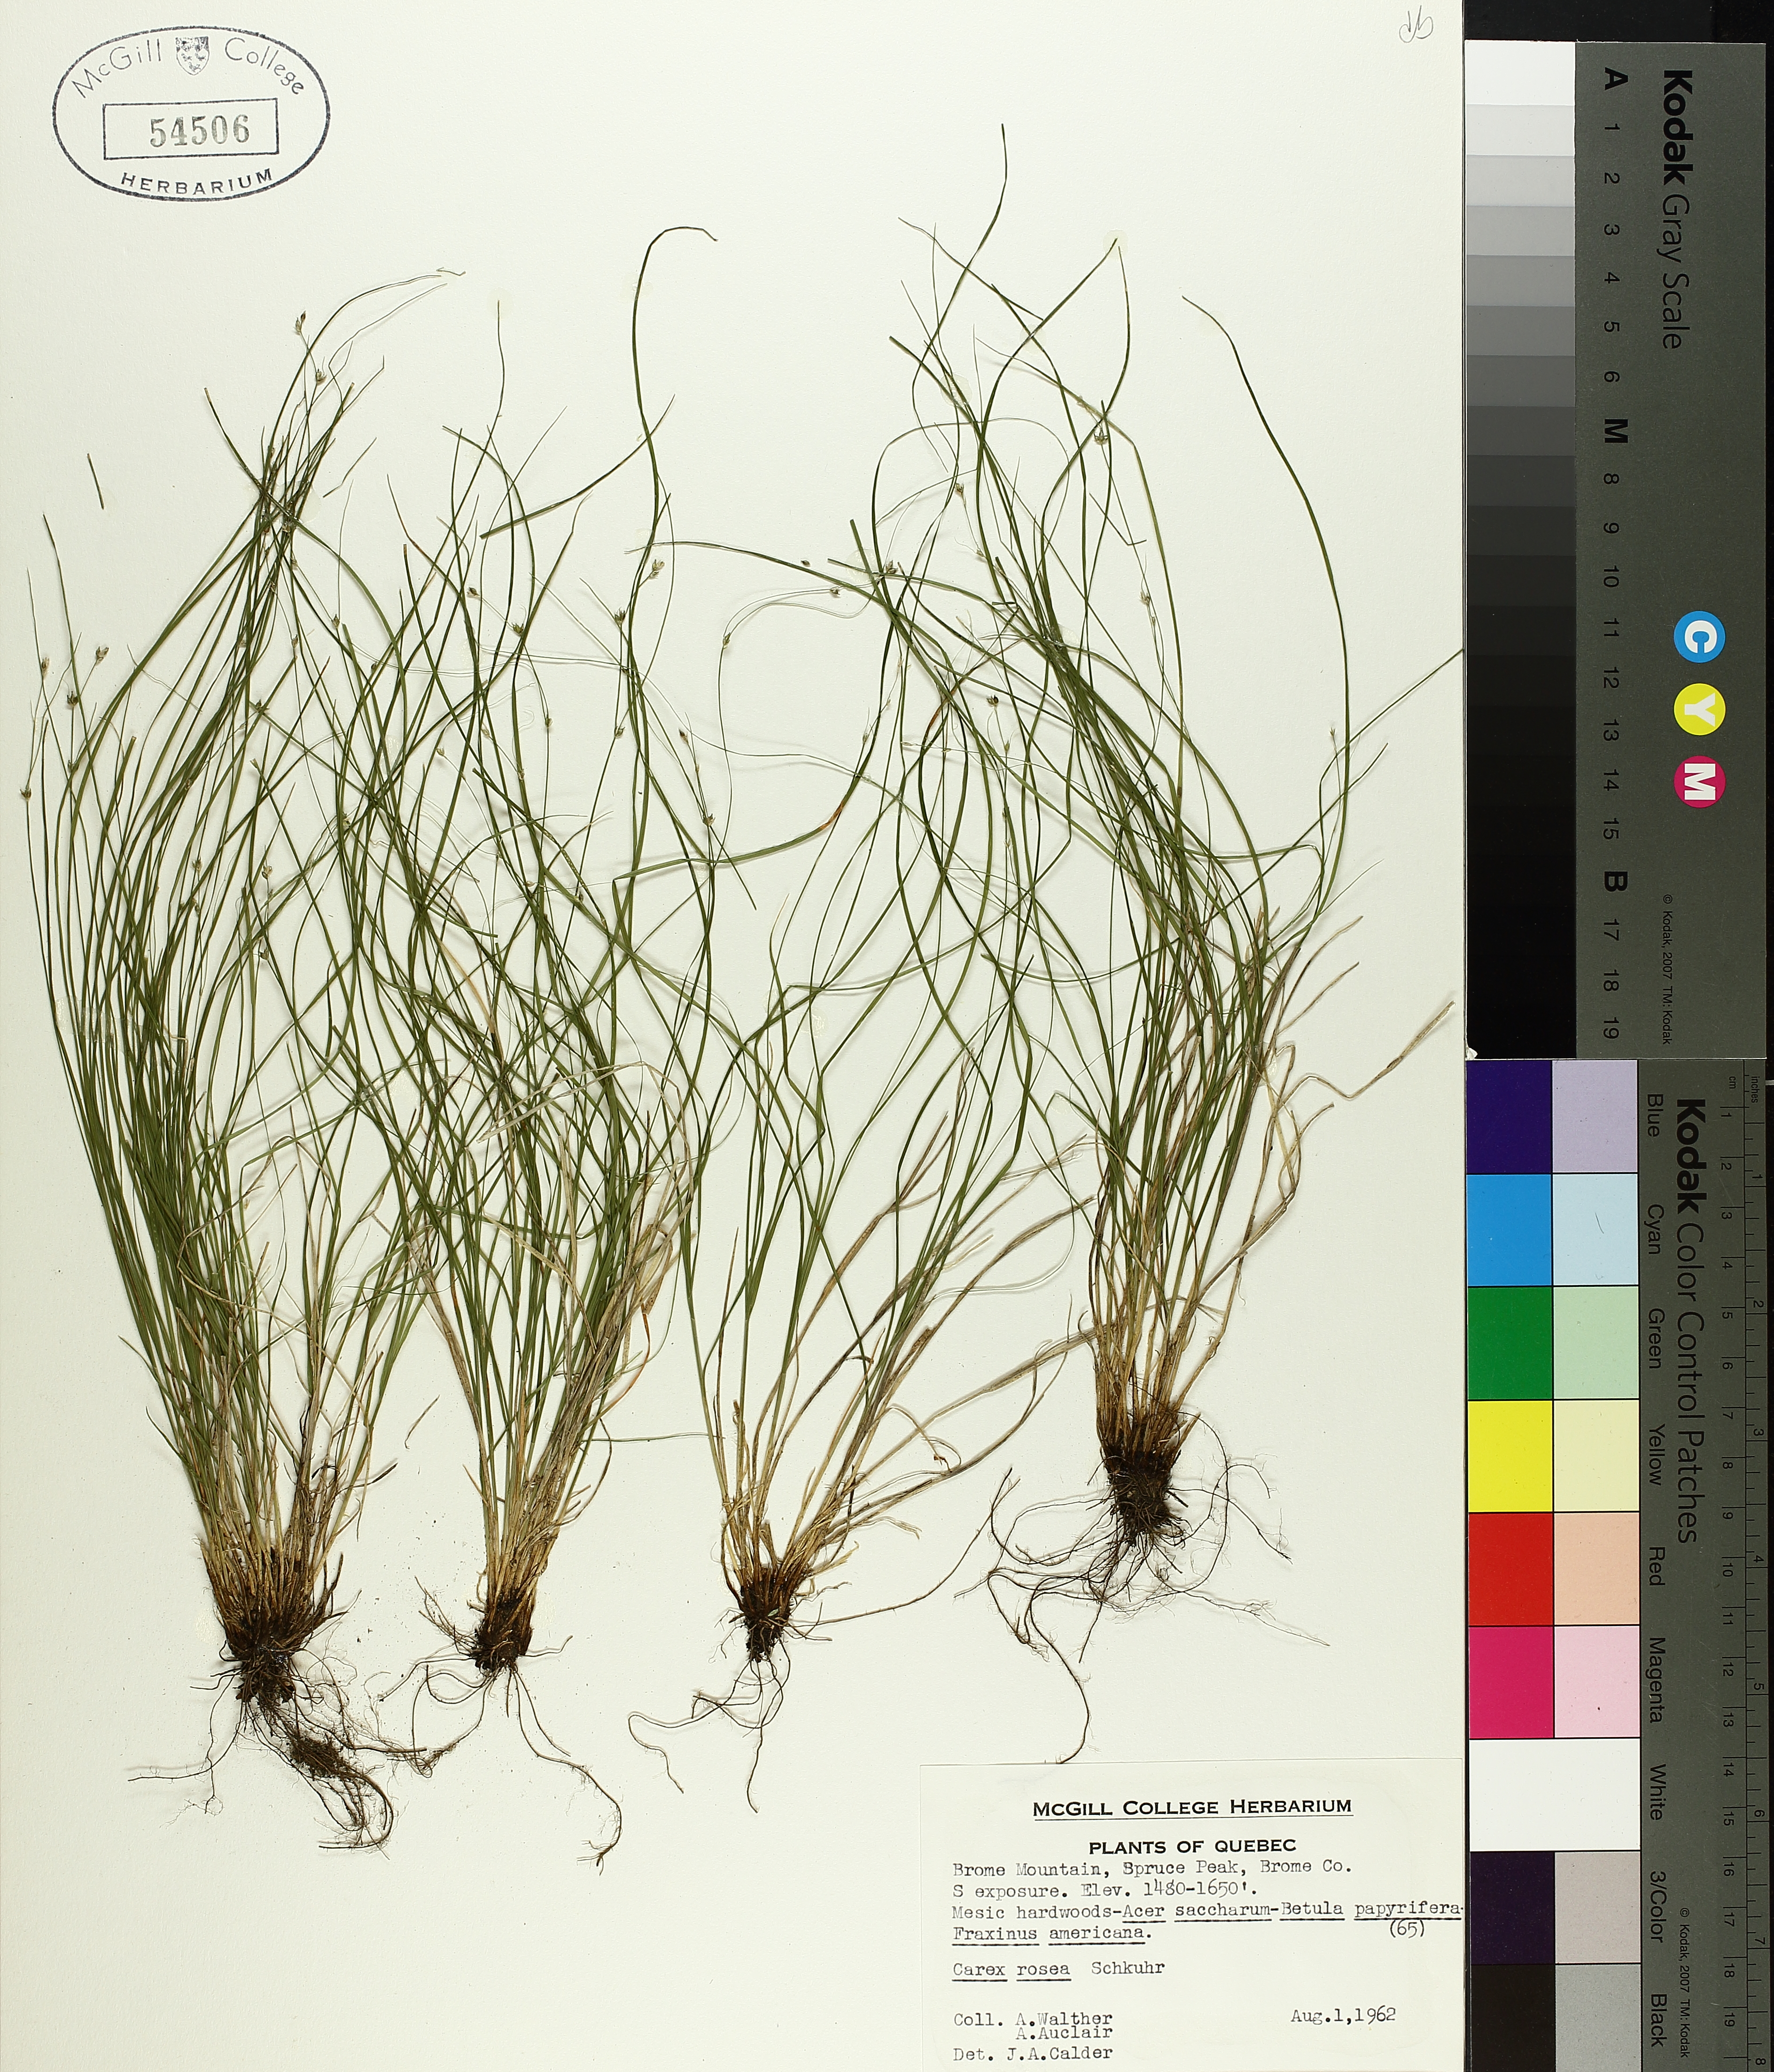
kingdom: Plantae
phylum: Tracheophyta
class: Liliopsida
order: Poales
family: Cyperaceae
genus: Carex
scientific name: Carex rosea
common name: Curly-styled wood sedge
